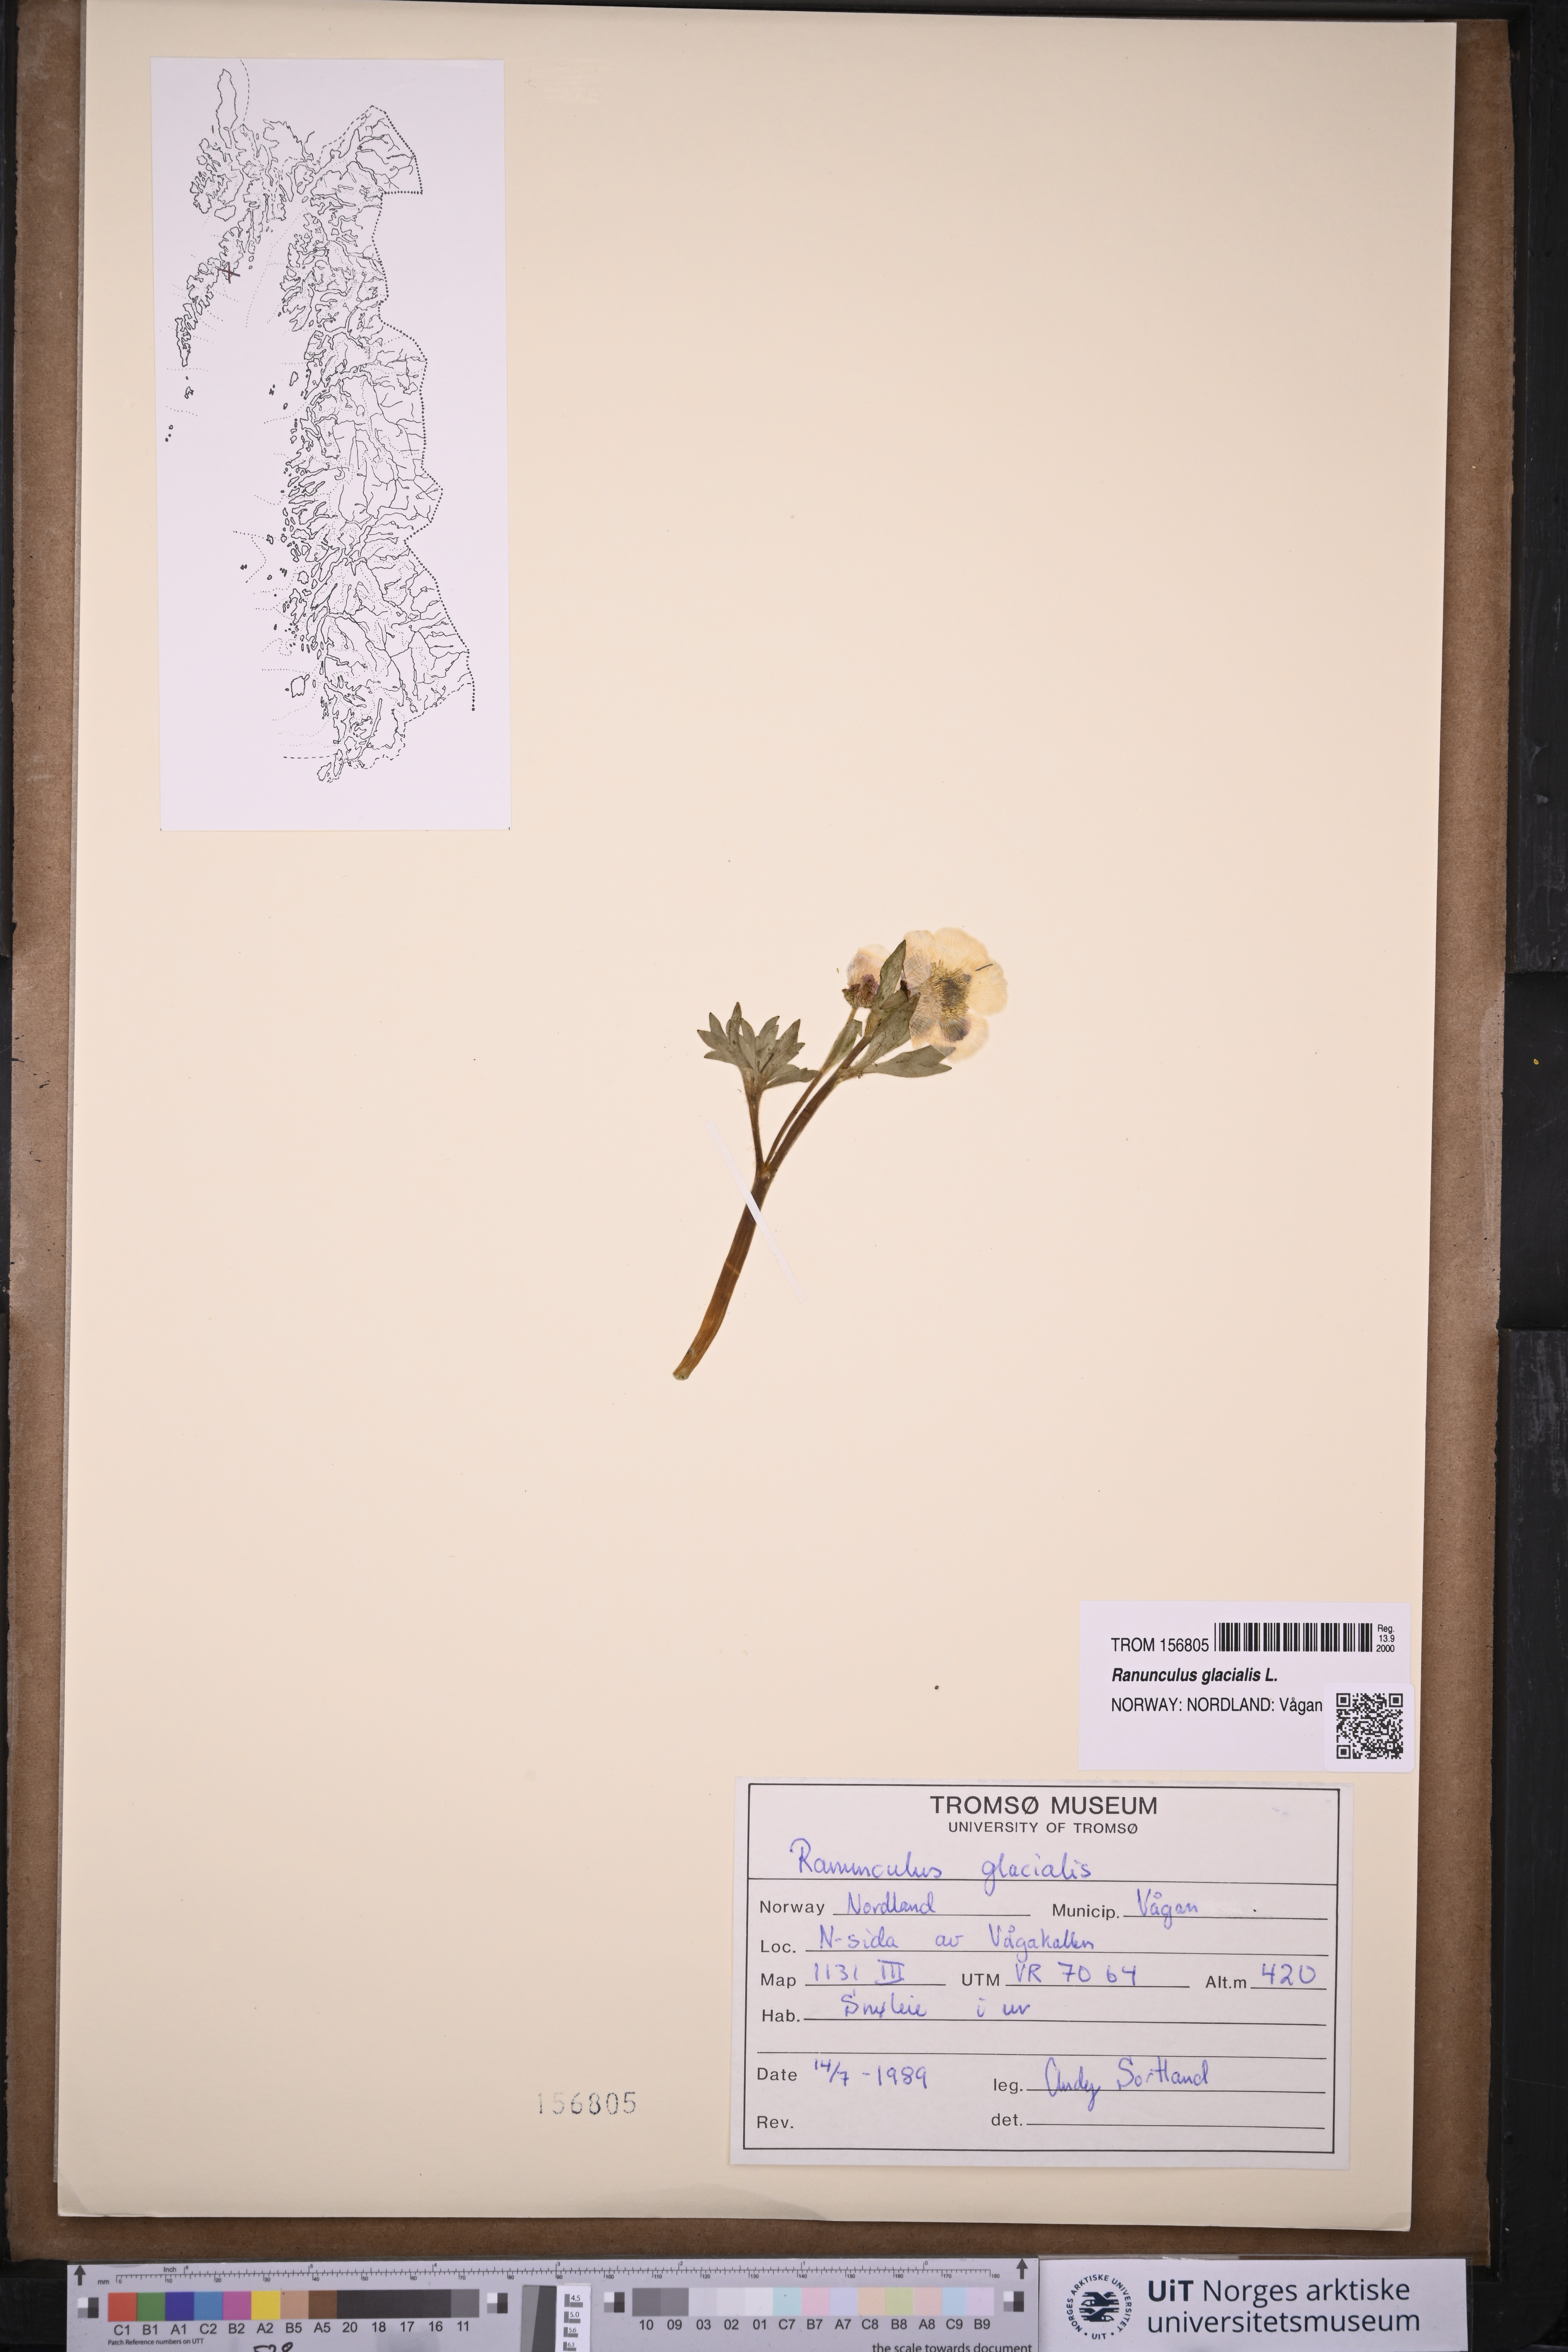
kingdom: Plantae
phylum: Tracheophyta
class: Magnoliopsida
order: Ranunculales
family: Ranunculaceae
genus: Ranunculus
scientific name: Ranunculus glacialis
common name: Glacier buttercup
